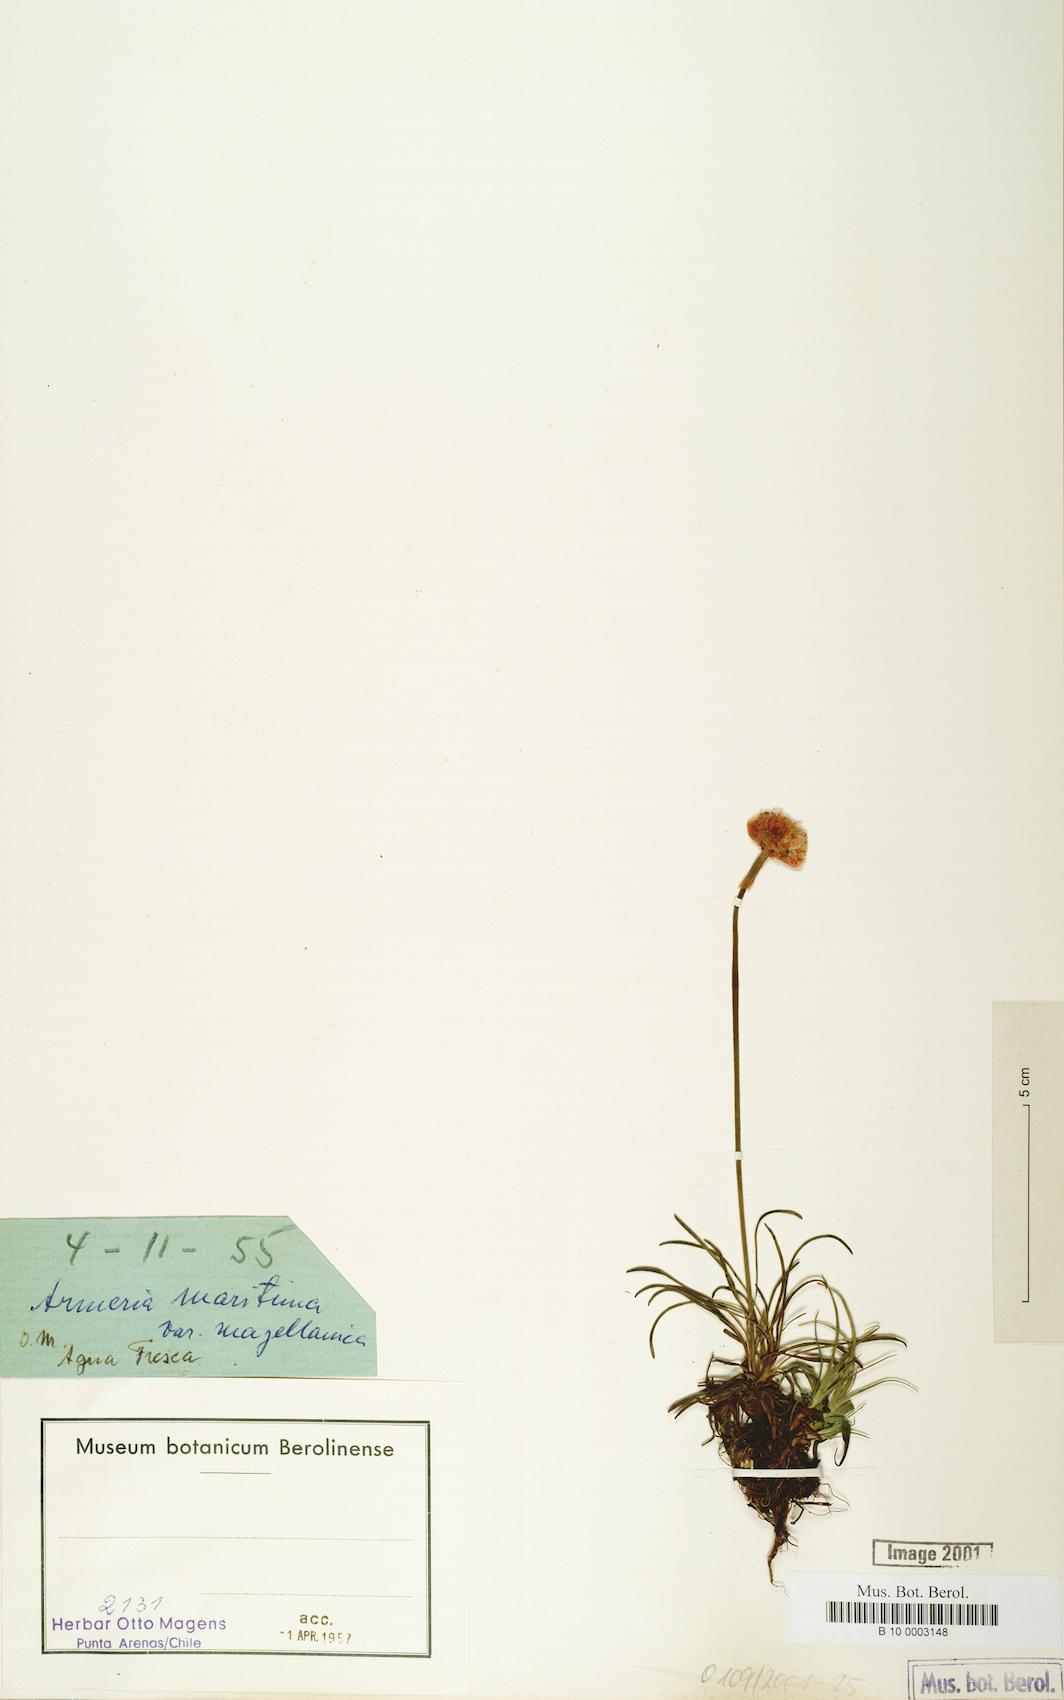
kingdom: Plantae
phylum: Tracheophyta
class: Magnoliopsida
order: Caryophyllales
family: Plumbaginaceae
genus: Armeria
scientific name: Armeria curvifolia
